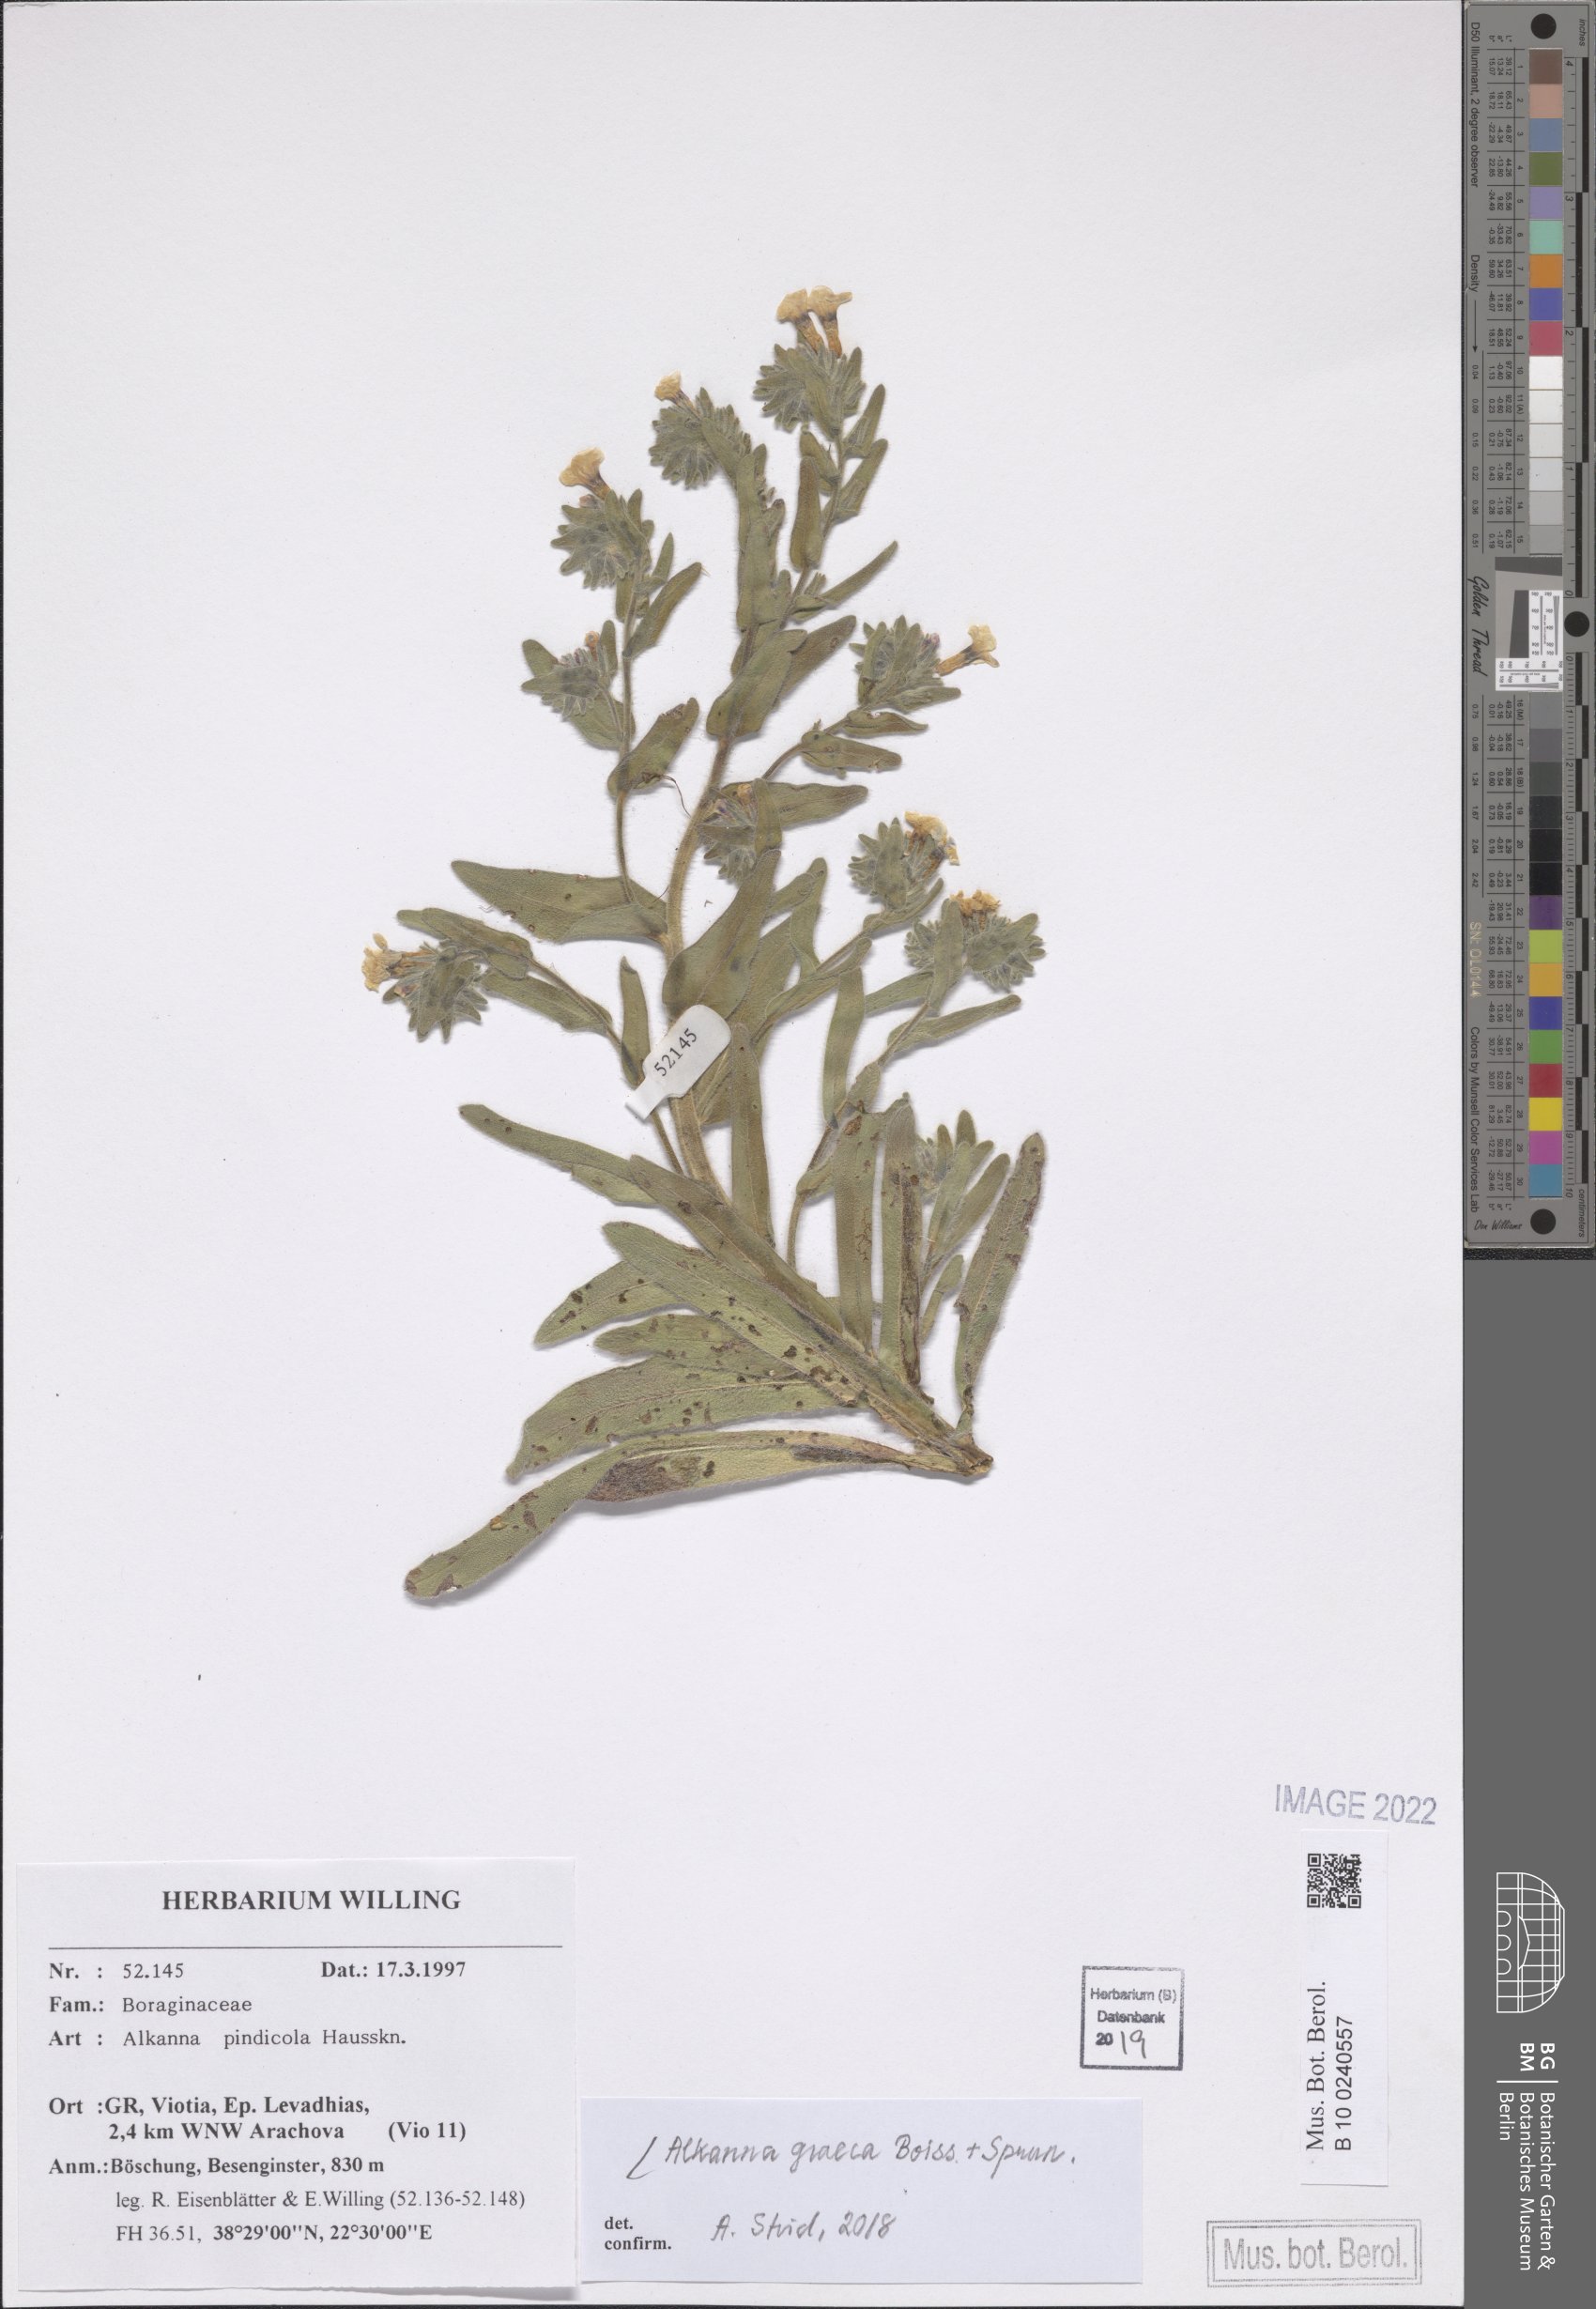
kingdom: Plantae
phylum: Tracheophyta
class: Magnoliopsida
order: Boraginales
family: Boraginaceae
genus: Alkanna
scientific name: Alkanna graeca
